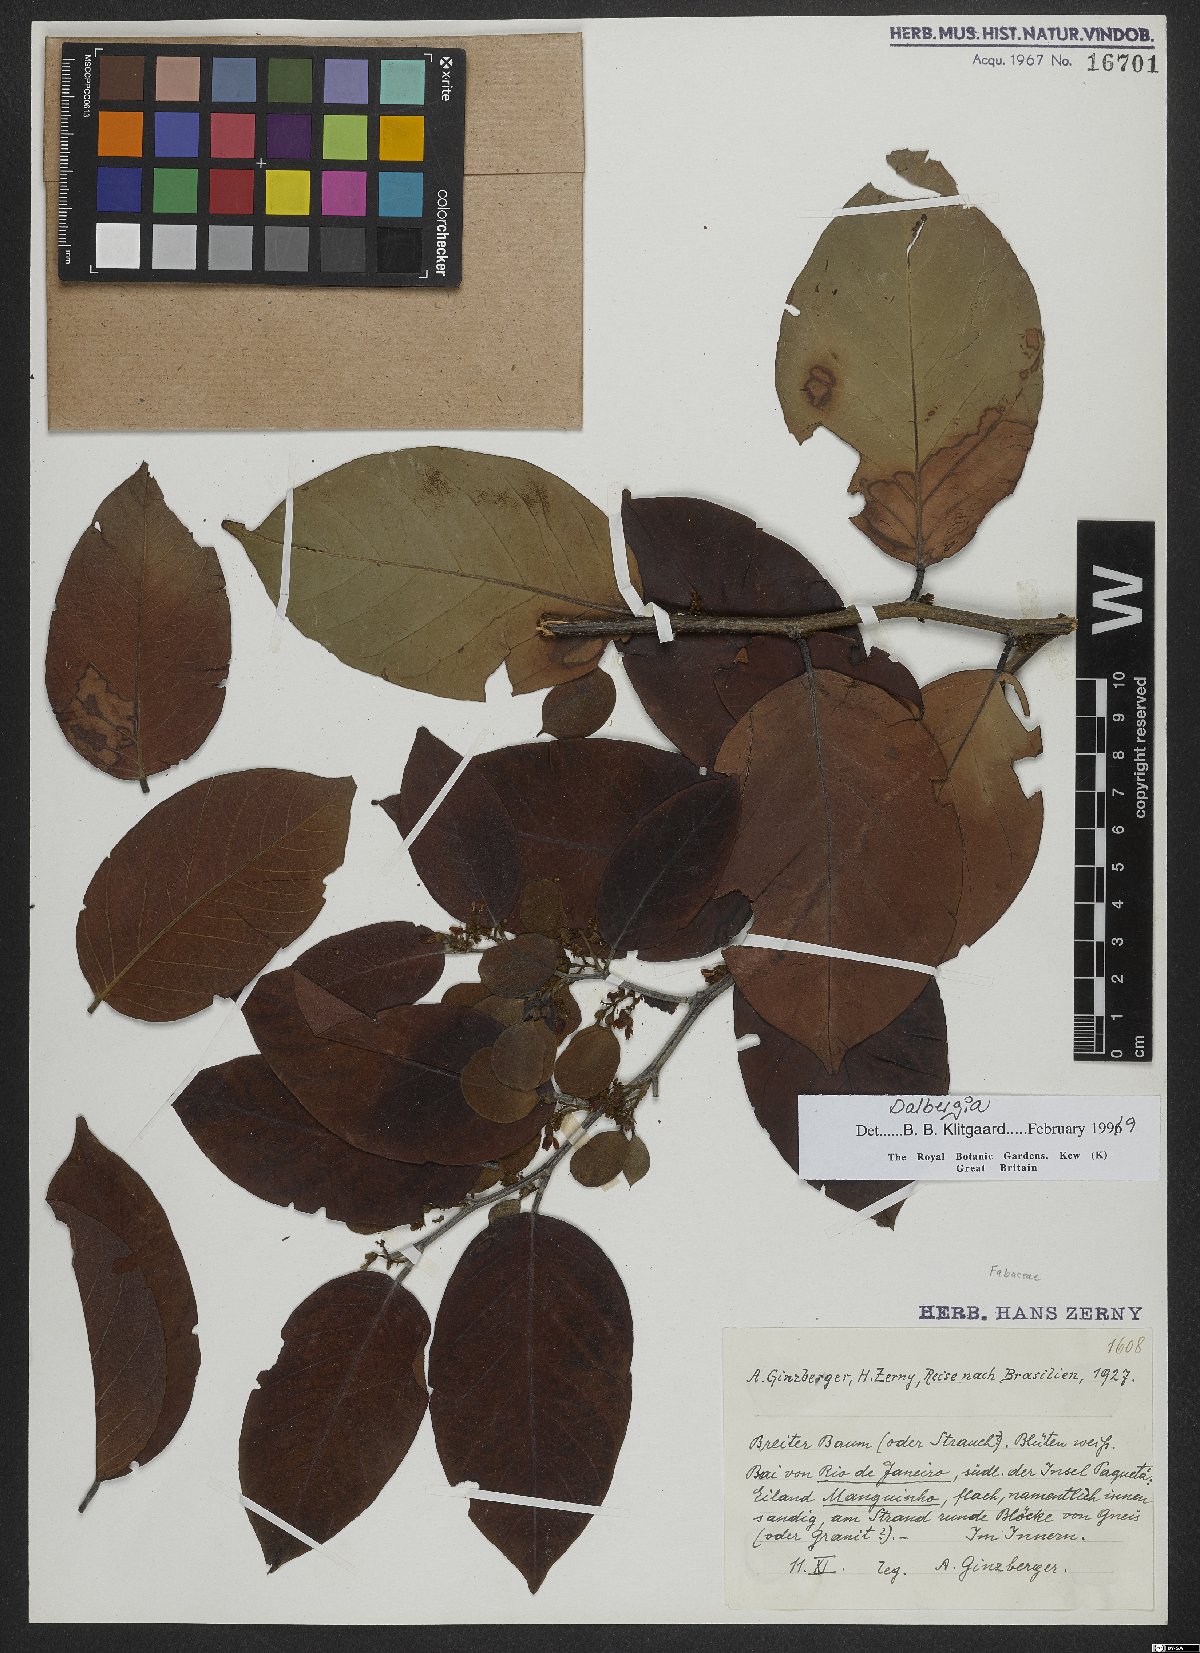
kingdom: Plantae
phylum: Tracheophyta
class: Magnoliopsida
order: Fabales
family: Fabaceae
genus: Dalbergia
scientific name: Dalbergia
